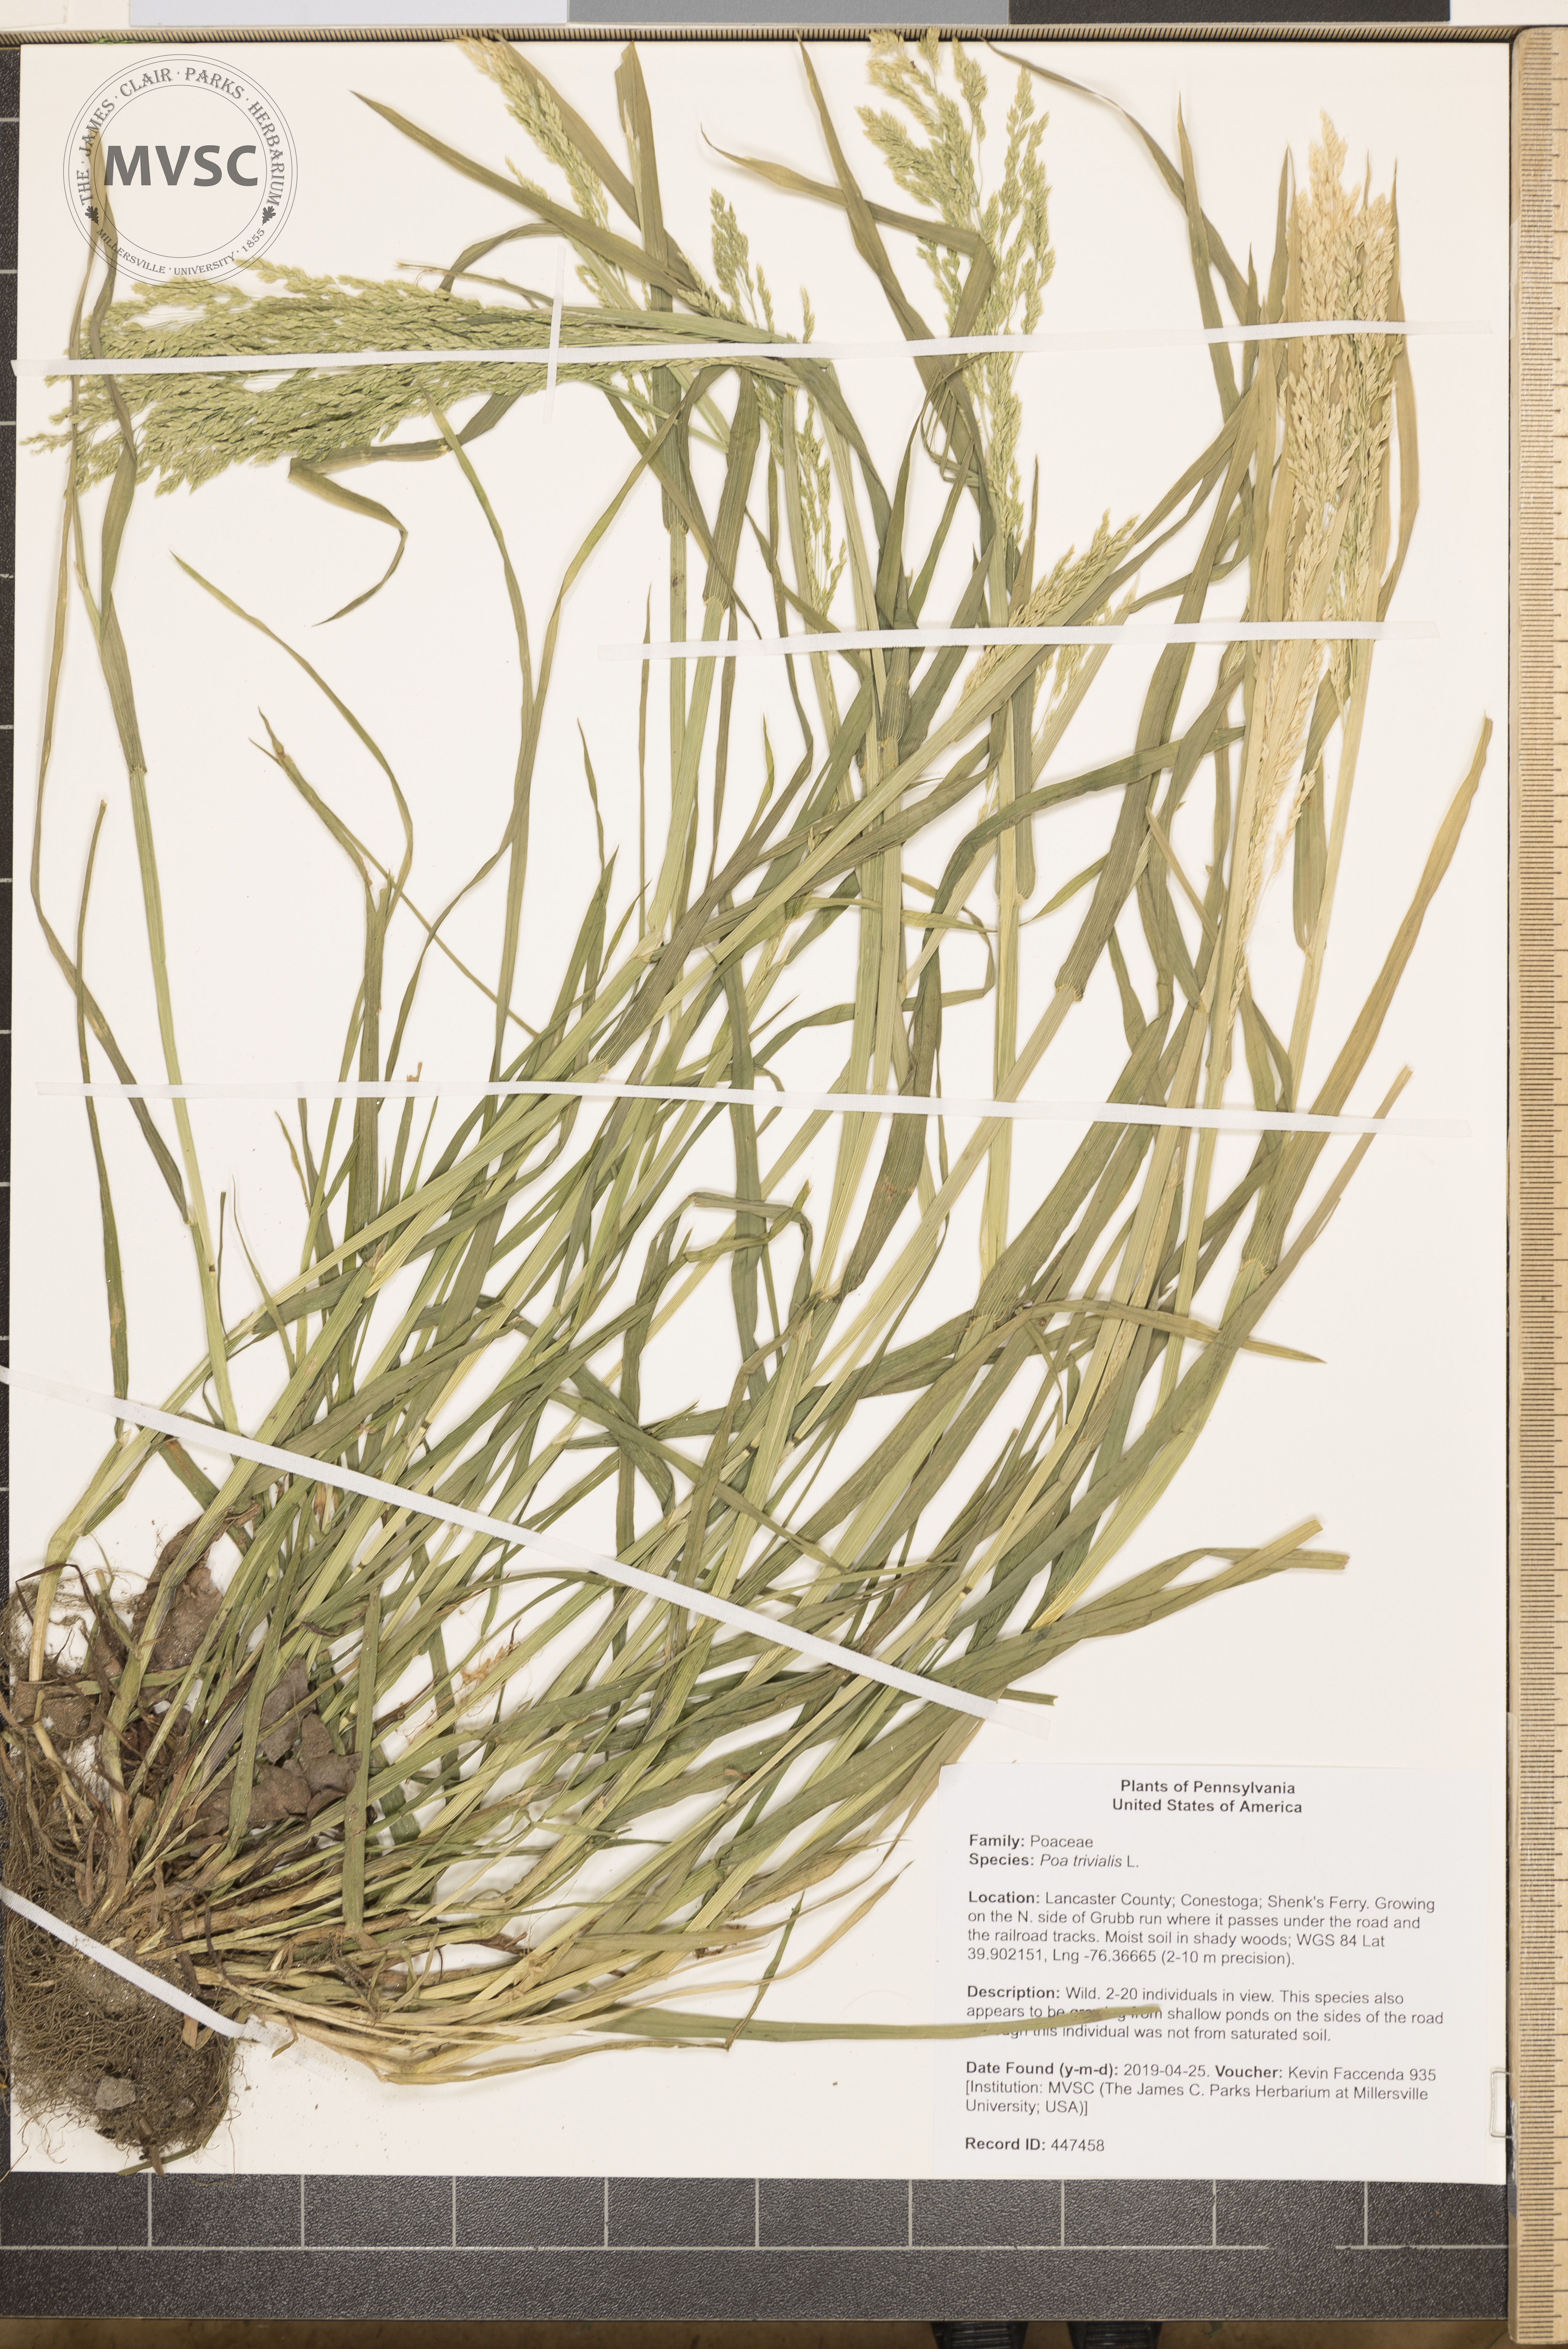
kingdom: Plantae
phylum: Tracheophyta
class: Liliopsida
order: Poales
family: Poaceae
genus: Poa
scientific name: Poa trivialis
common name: Rough bluegrass
